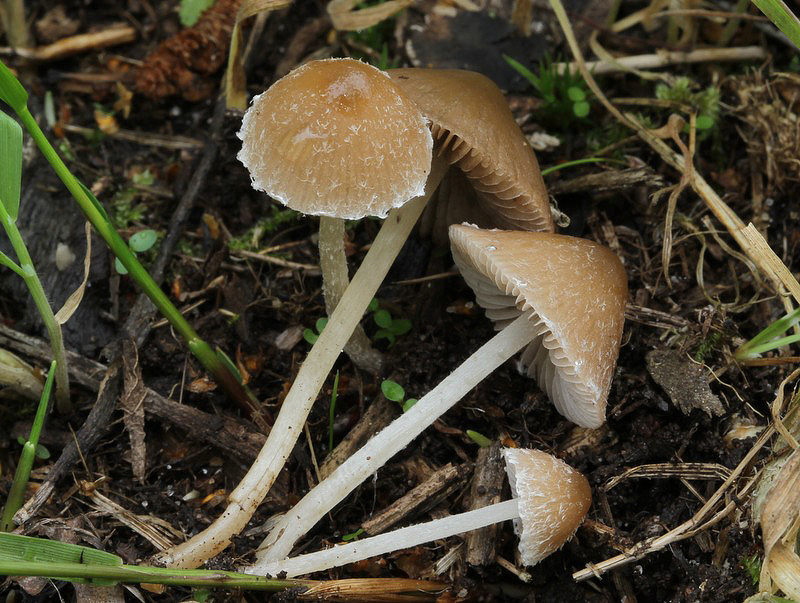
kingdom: Fungi
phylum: Basidiomycota
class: Agaricomycetes
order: Agaricales
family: Psathyrellaceae
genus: Psathyrella
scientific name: Psathyrella impexa
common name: rødmende mørkhat
